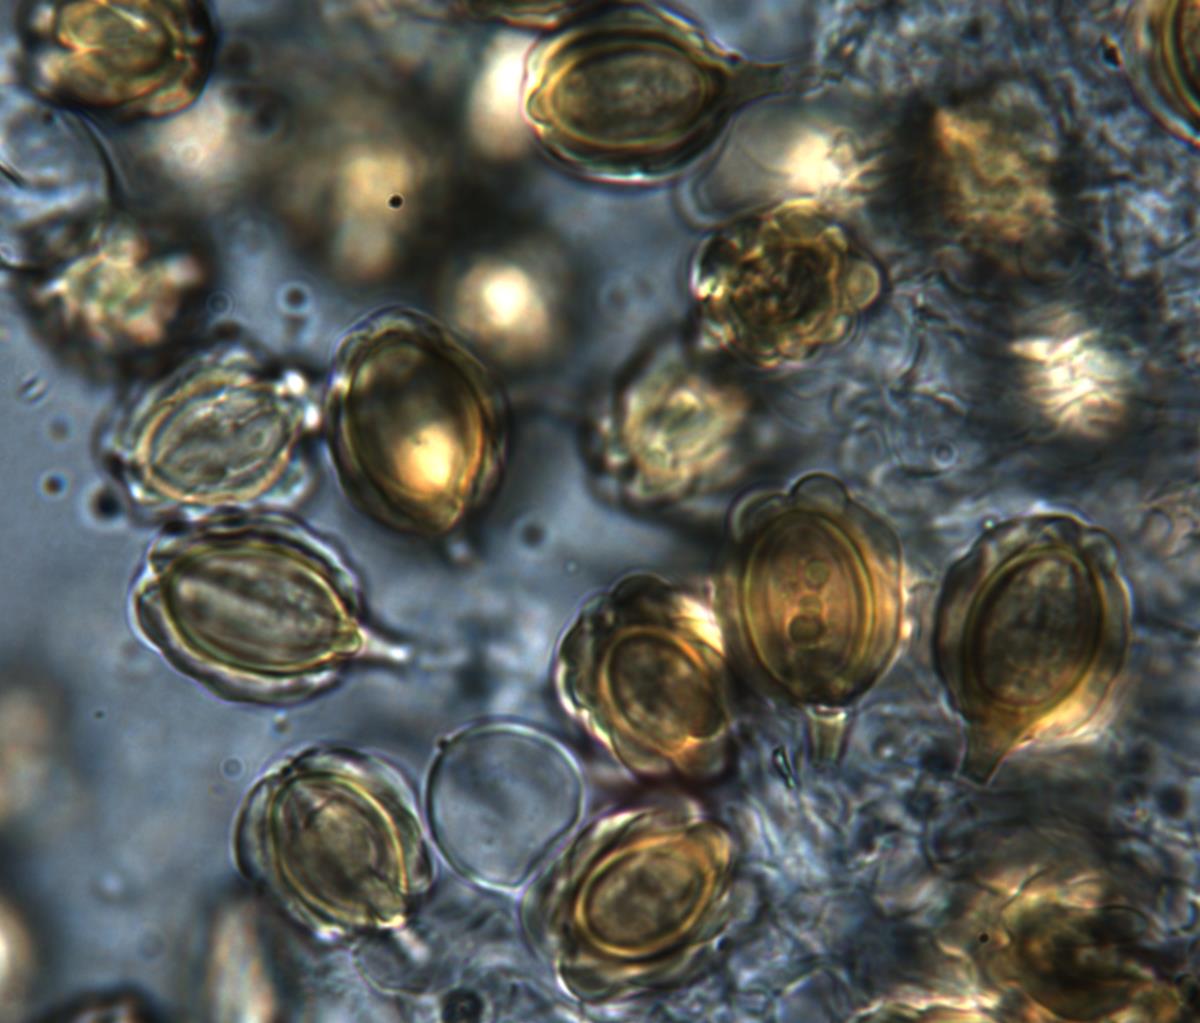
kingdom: Fungi
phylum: Basidiomycota
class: Agaricomycetes
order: Gomphales
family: Gomphaceae
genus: Gautieria
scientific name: Gautieria
